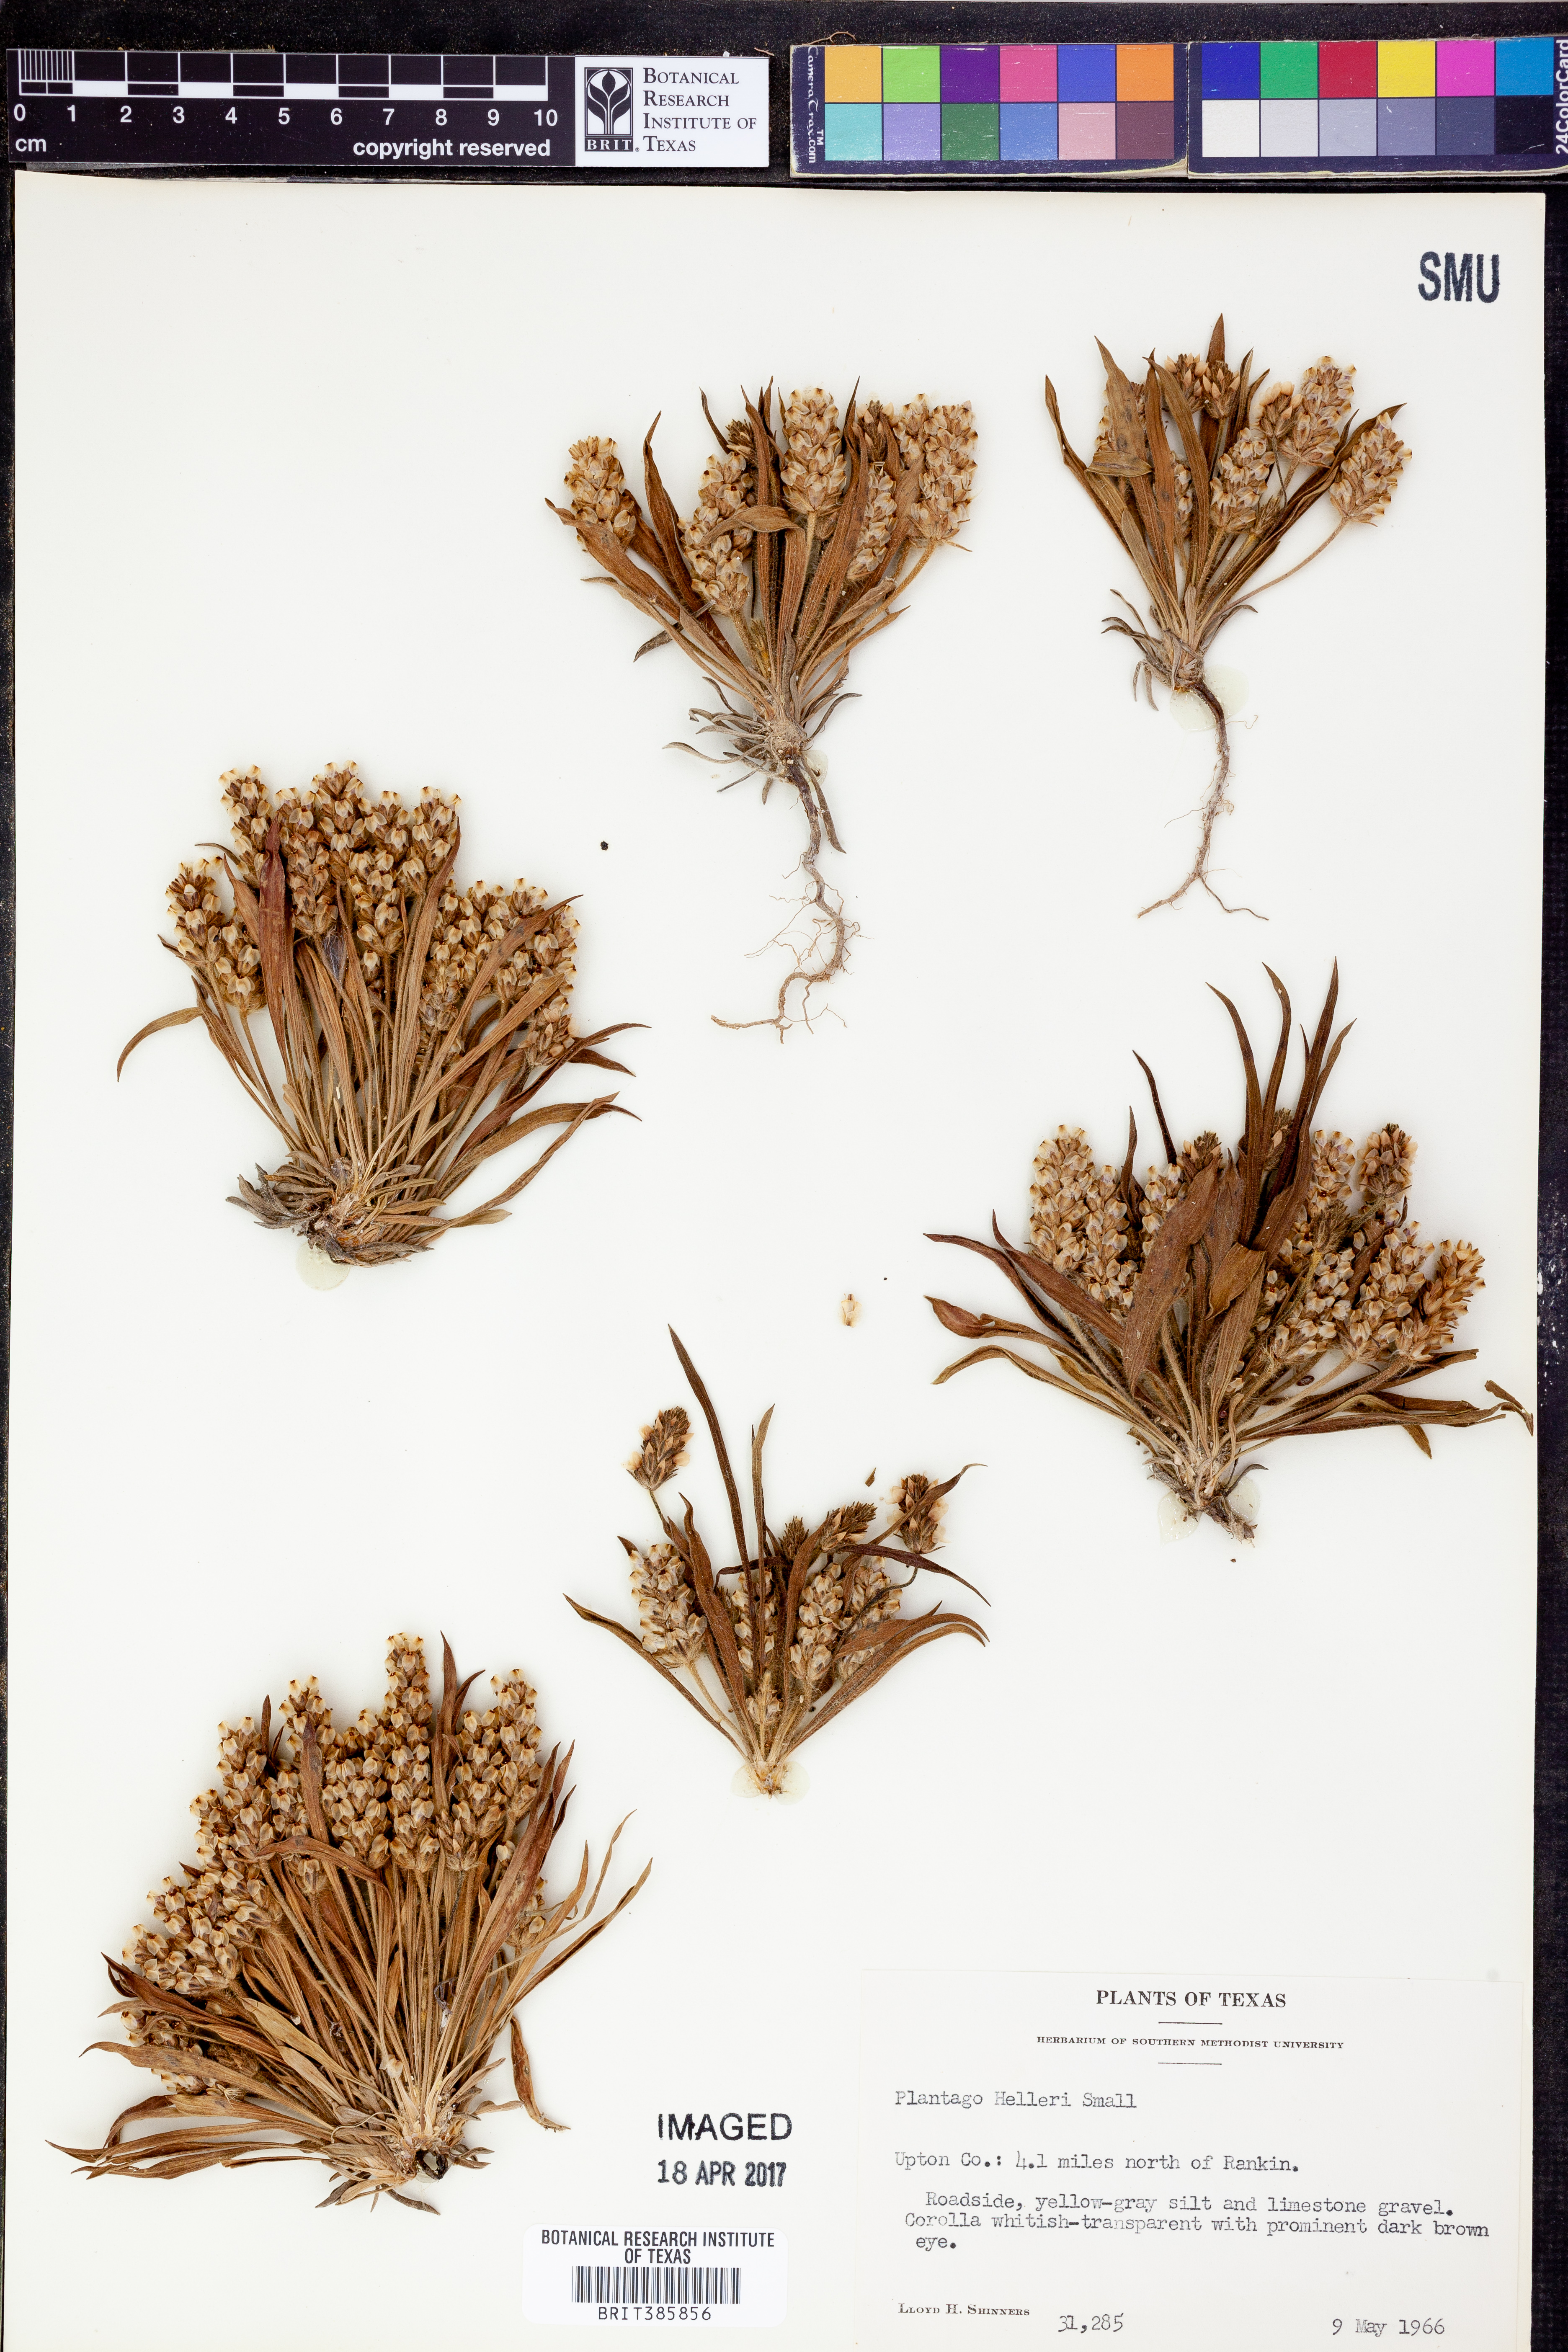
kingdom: Plantae
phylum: Tracheophyta
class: Magnoliopsida
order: Lamiales
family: Plantaginaceae
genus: Plantago
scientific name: Plantago helleri
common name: Heller's plantain
